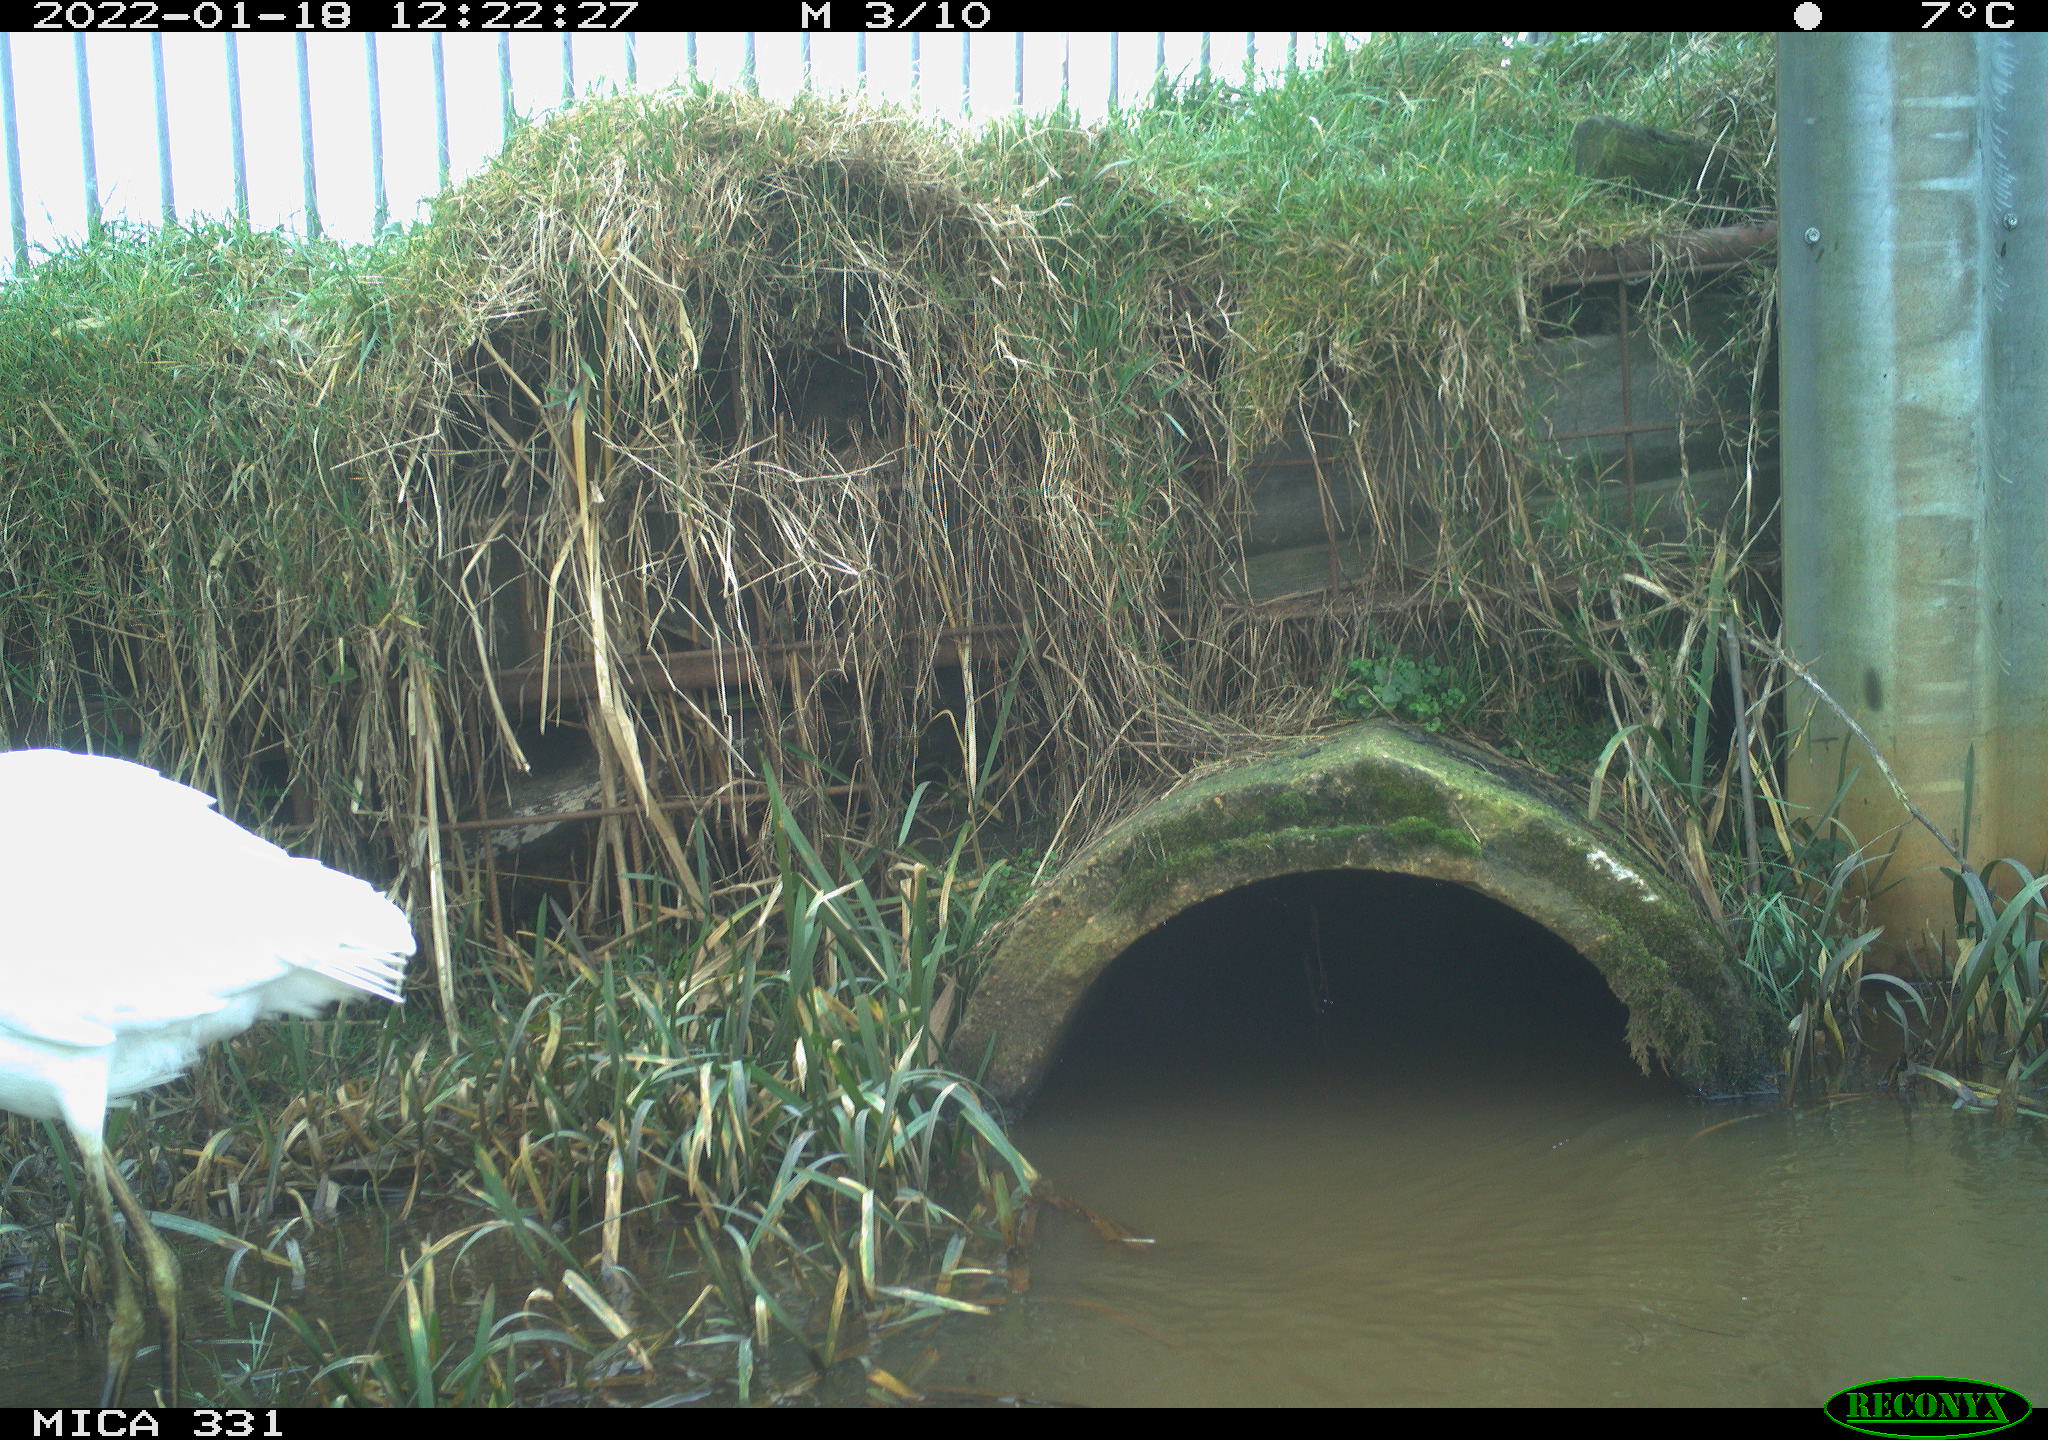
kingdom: Animalia
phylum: Chordata
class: Aves
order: Pelecaniformes
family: Ardeidae
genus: Ardea
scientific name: Ardea alba
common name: Great egret
